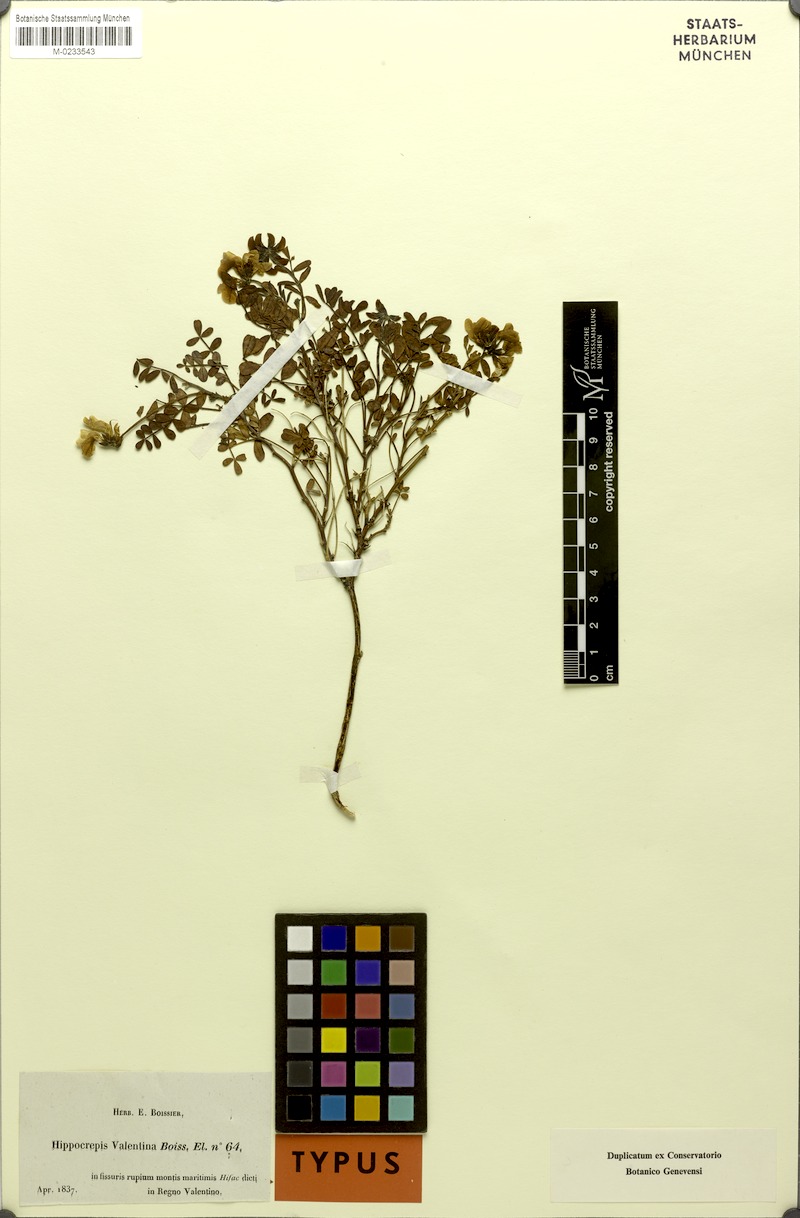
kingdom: Plantae
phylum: Tracheophyta
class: Magnoliopsida
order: Fabales
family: Fabaceae
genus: Hippocrepis
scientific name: Hippocrepis valentina
